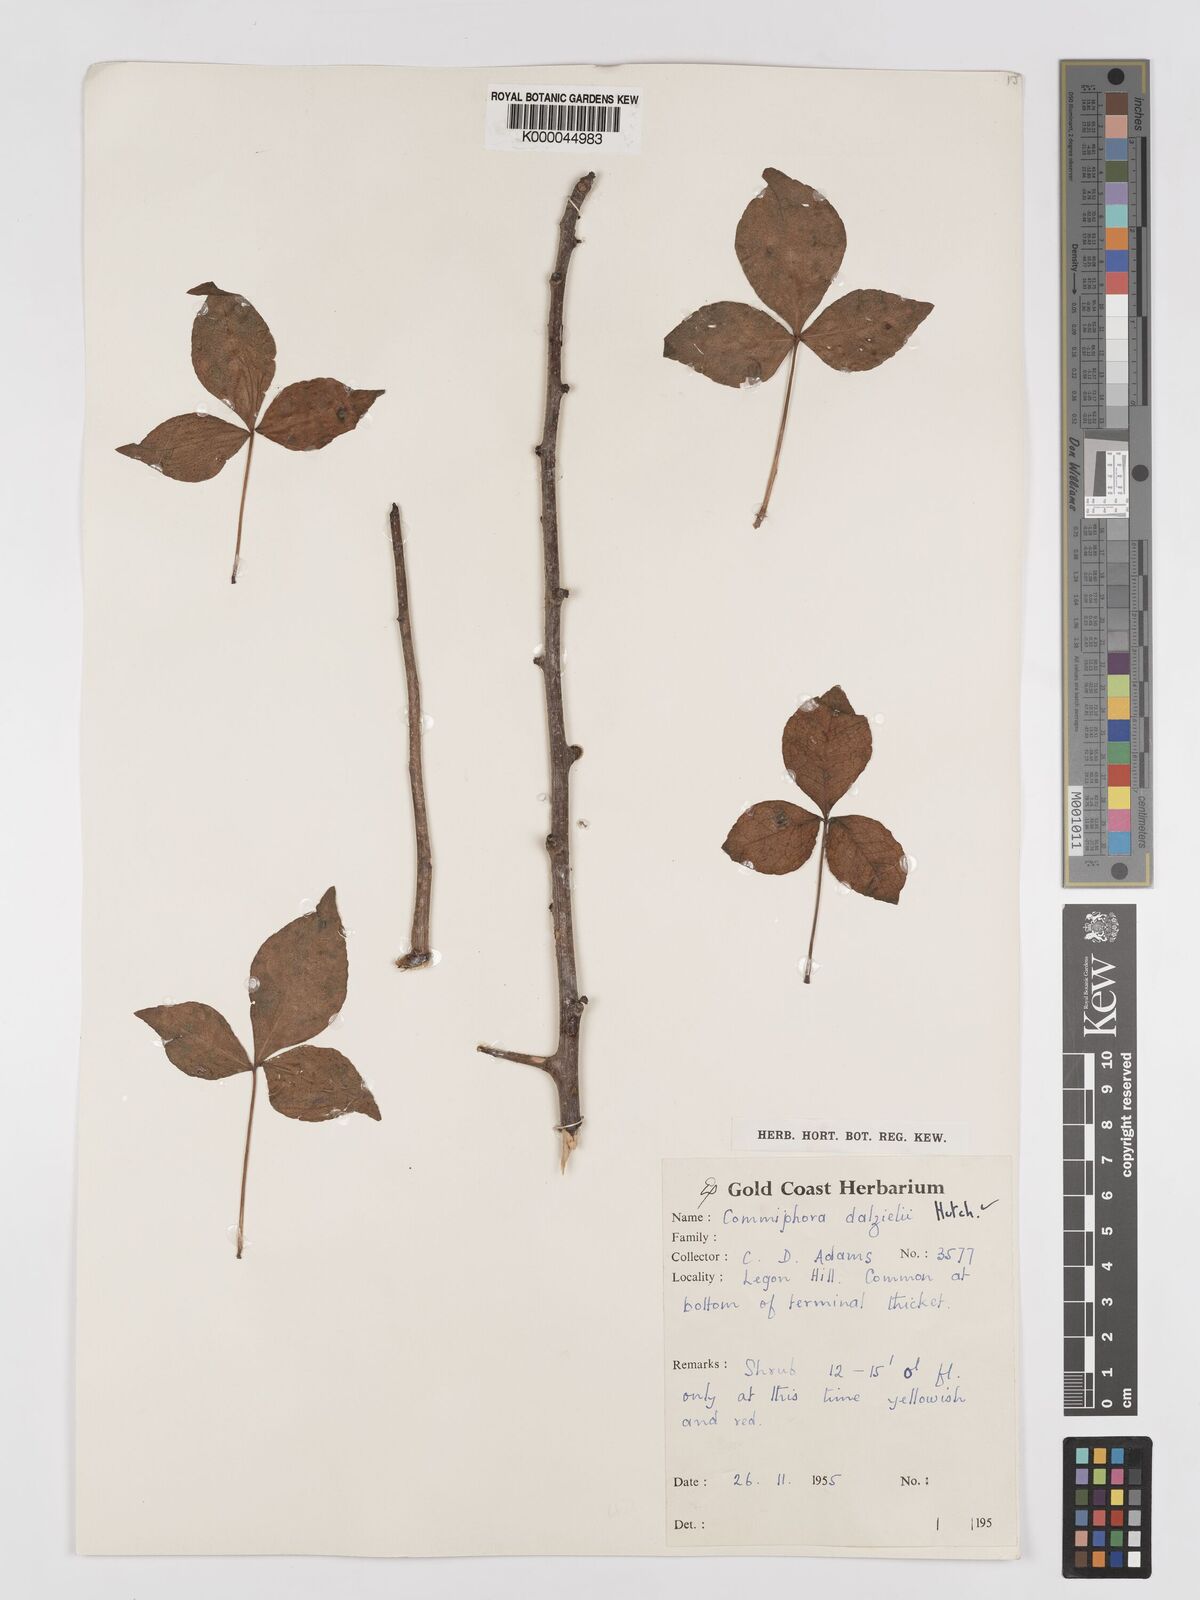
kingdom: Plantae
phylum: Tracheophyta
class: Magnoliopsida
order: Sapindales
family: Burseraceae
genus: Commiphora
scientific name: Commiphora dalzielii
